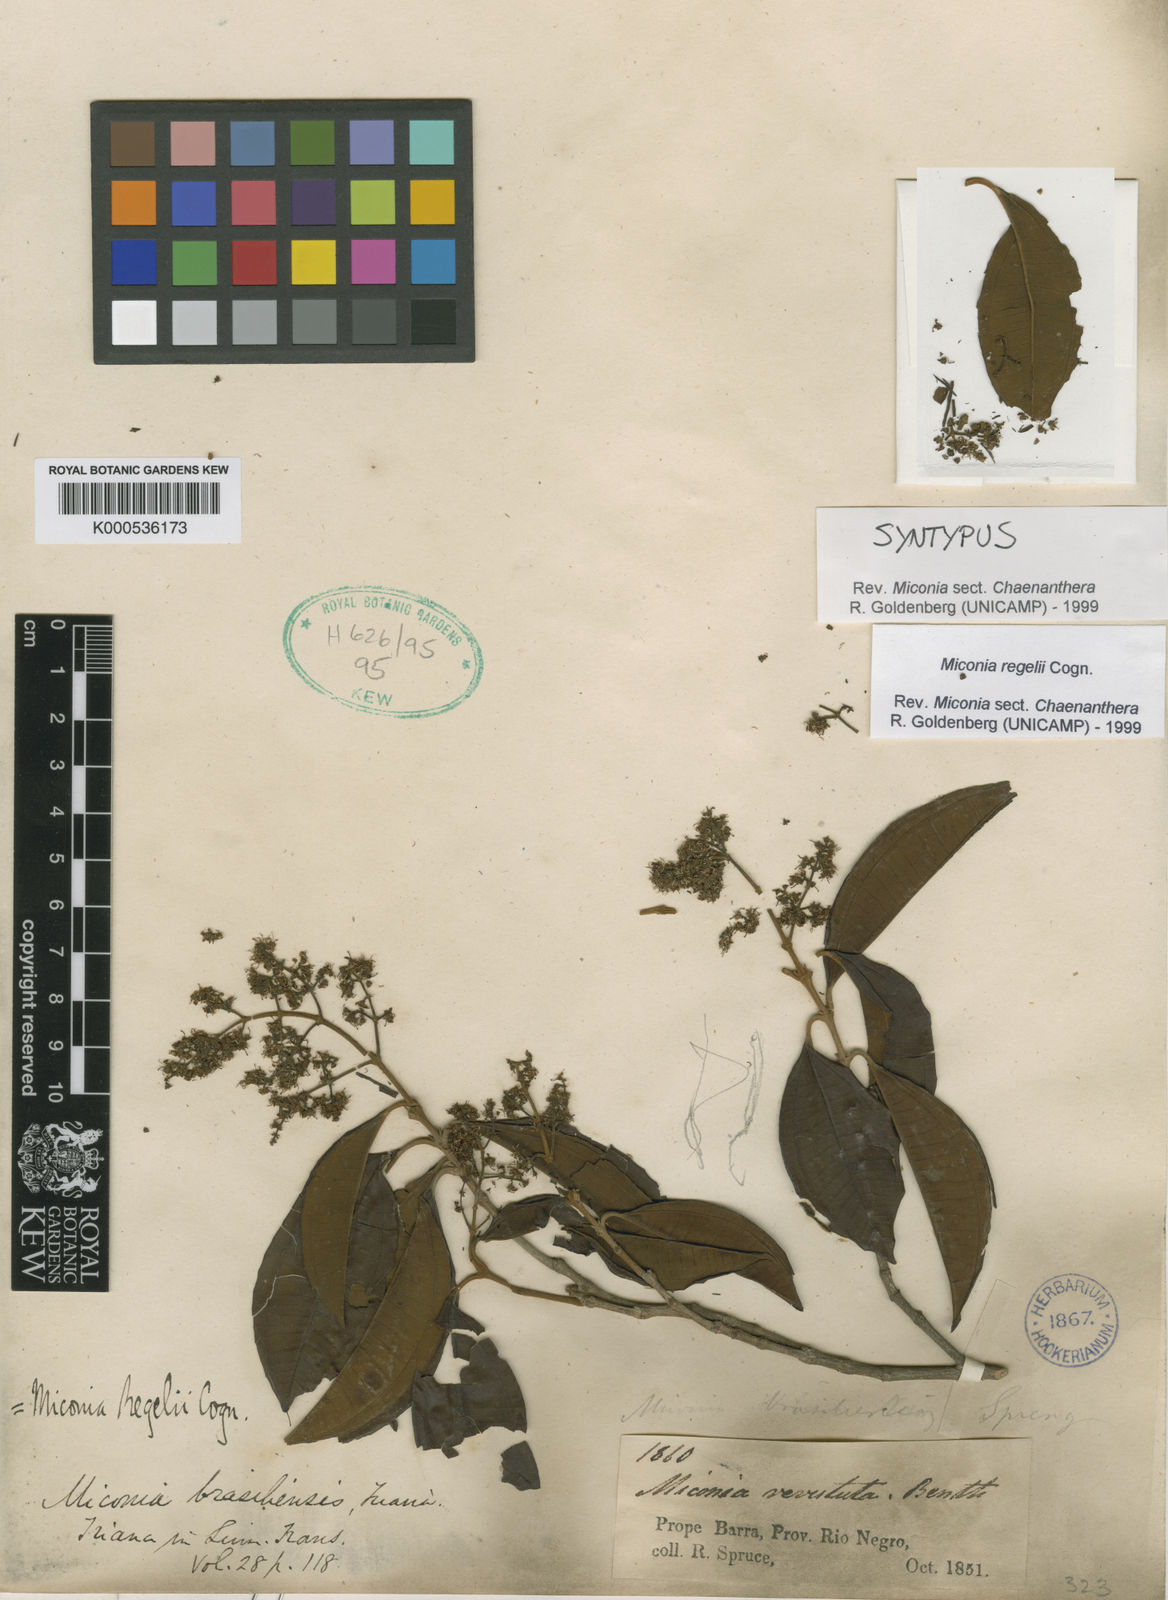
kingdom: Plantae
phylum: Tracheophyta
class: Magnoliopsida
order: Myrtales
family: Melastomataceae
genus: Miconia
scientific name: Miconia regelii
